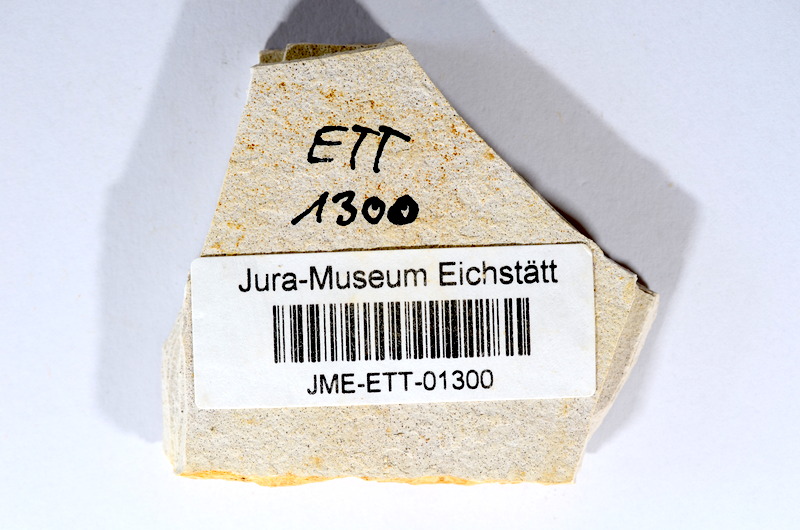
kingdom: Animalia
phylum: Chordata
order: Salmoniformes
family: Orthogonikleithridae
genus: Orthogonikleithrus
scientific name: Orthogonikleithrus hoelli
